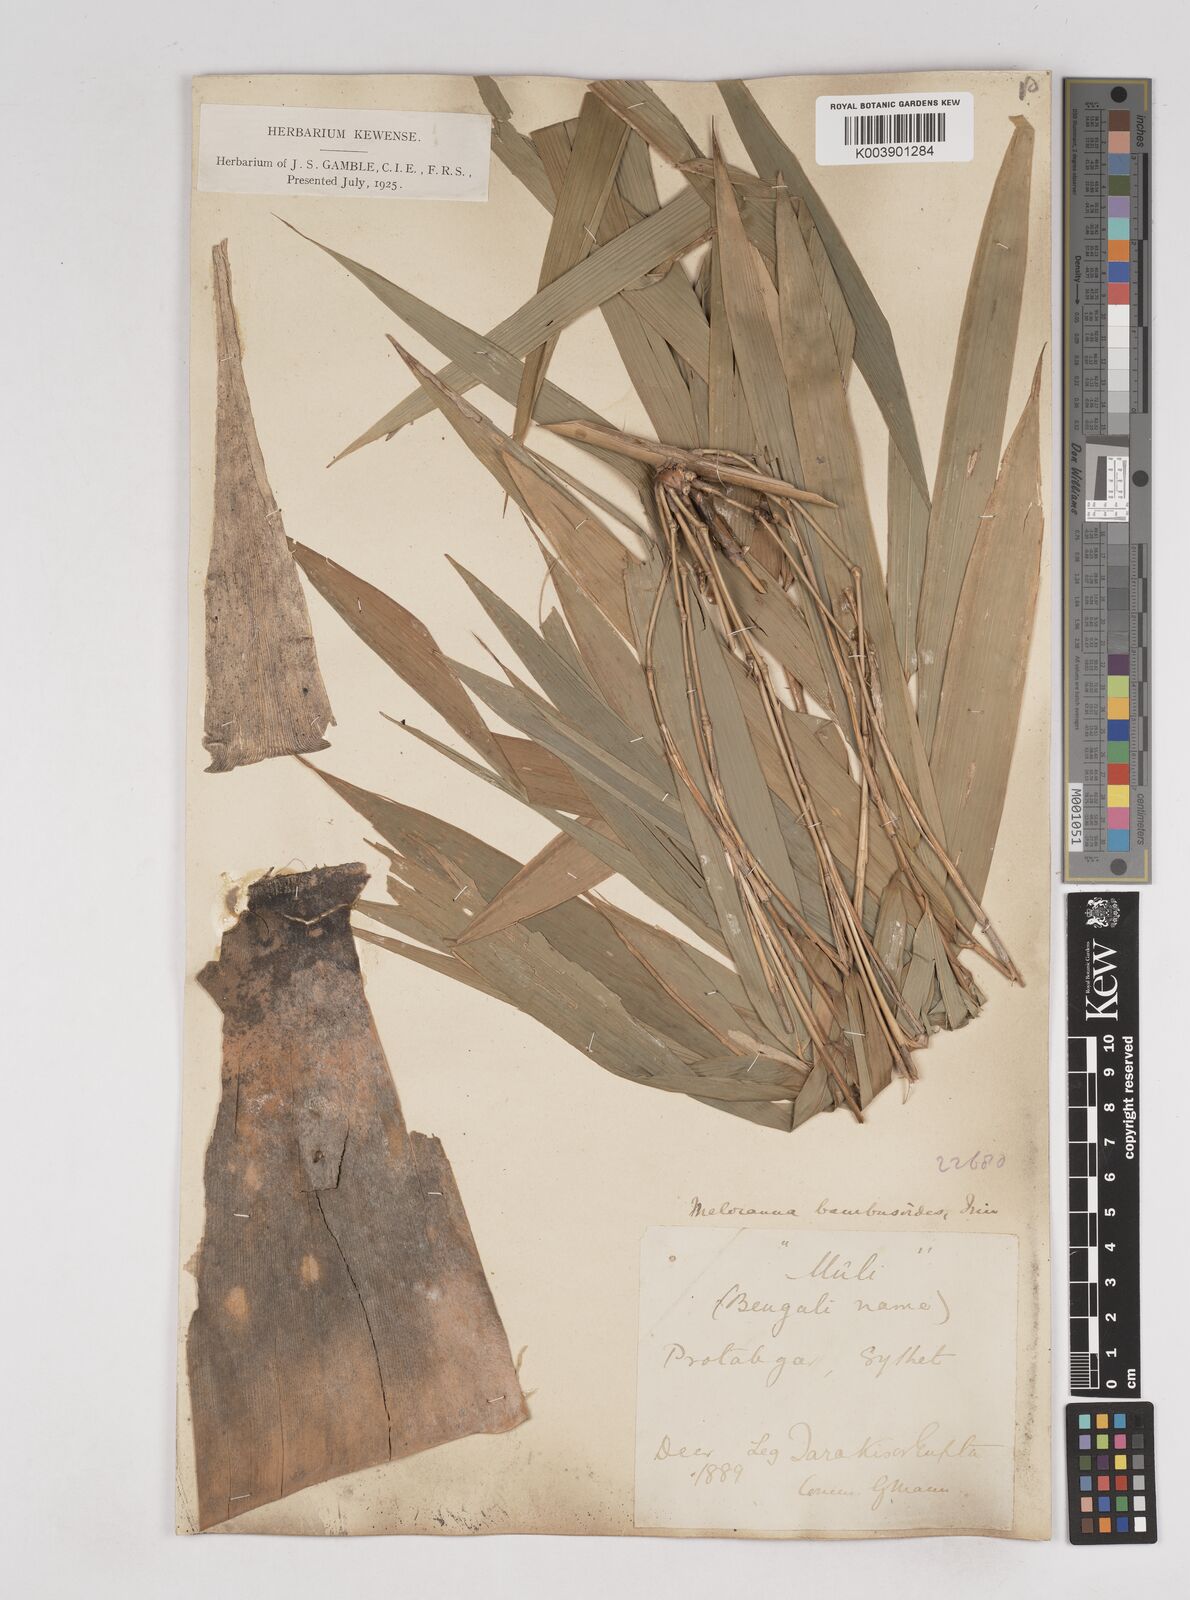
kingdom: Plantae
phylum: Tracheophyta
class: Liliopsida
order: Poales
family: Poaceae
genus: Melocanna
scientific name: Melocanna baccifera
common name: Berry bamboo
